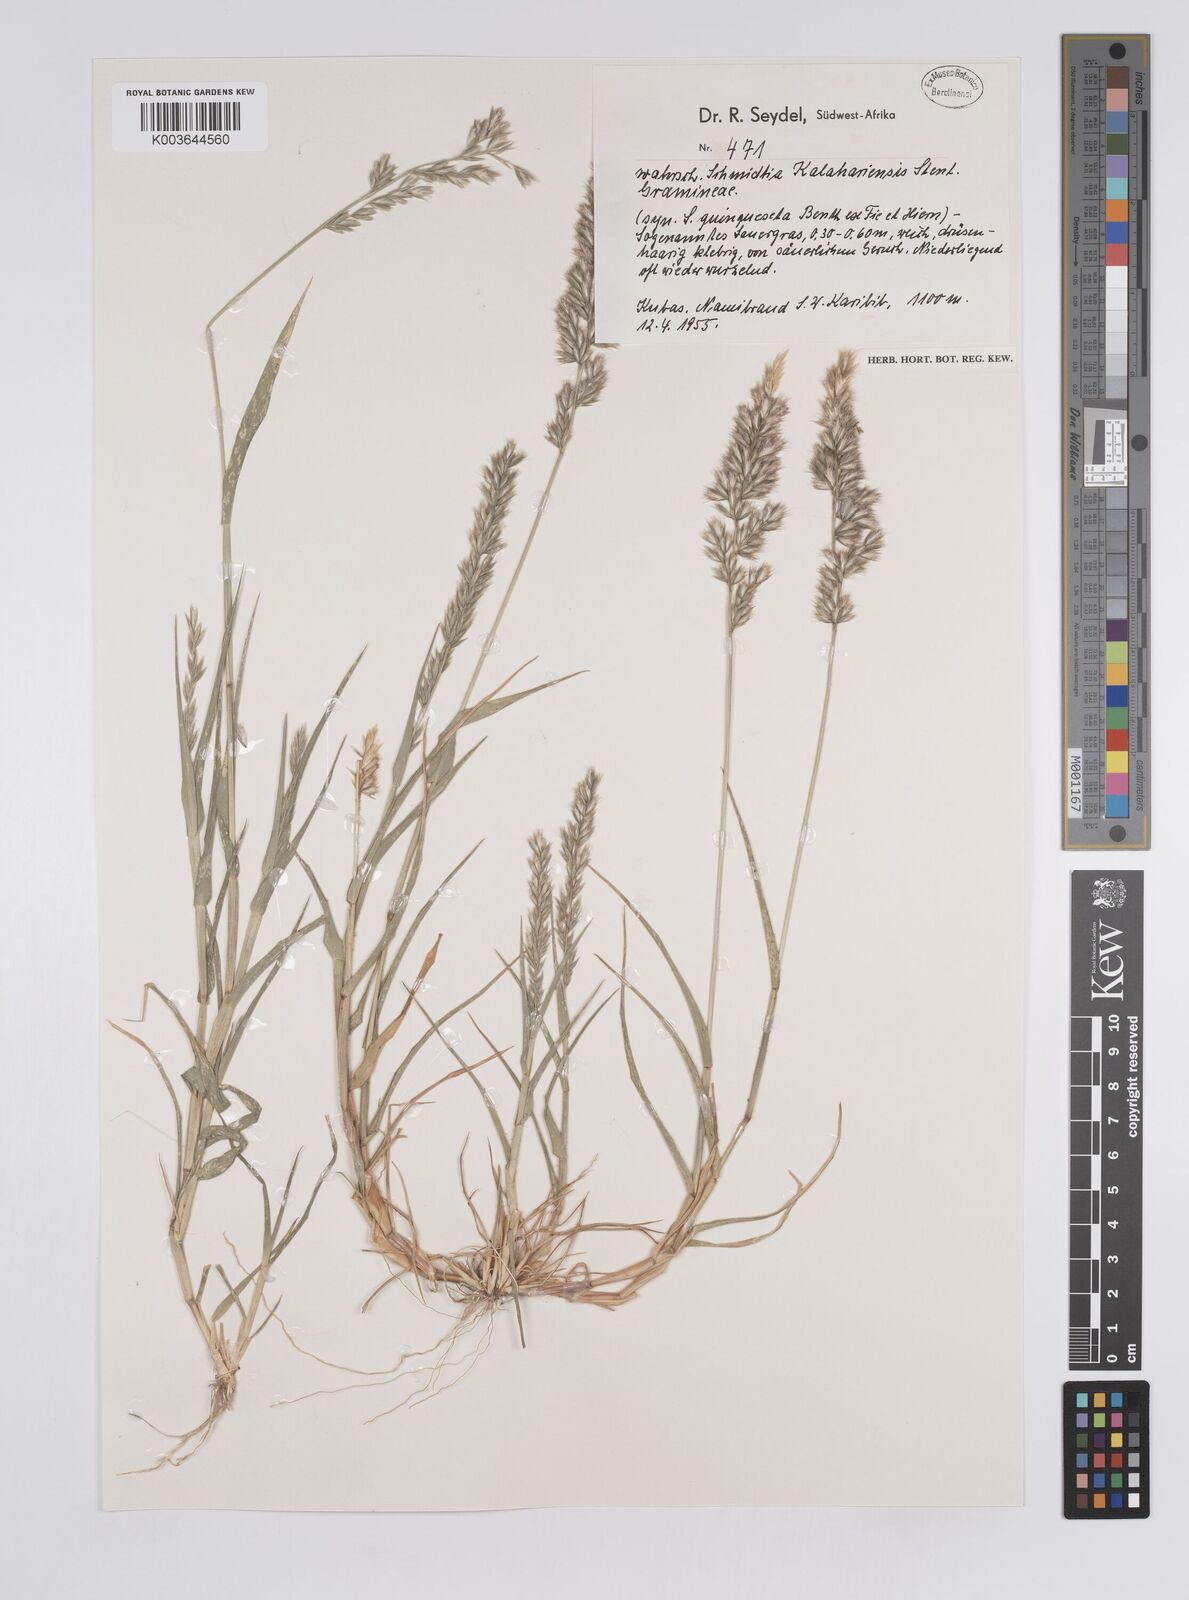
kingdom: Plantae
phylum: Tracheophyta
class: Liliopsida
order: Poales
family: Poaceae
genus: Schmidtia
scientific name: Schmidtia kalahariensis
